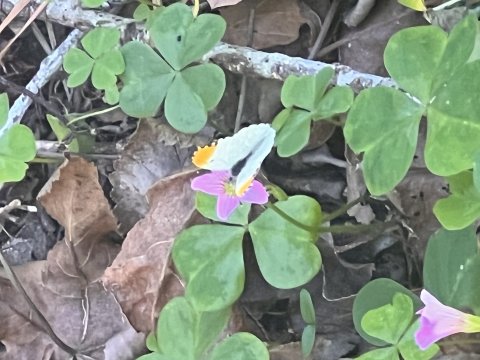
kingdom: Animalia
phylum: Arthropoda
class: Insecta
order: Lepidoptera
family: Pieridae
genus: Anthocharis
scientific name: Anthocharis midea
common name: Falcate Orangetip
